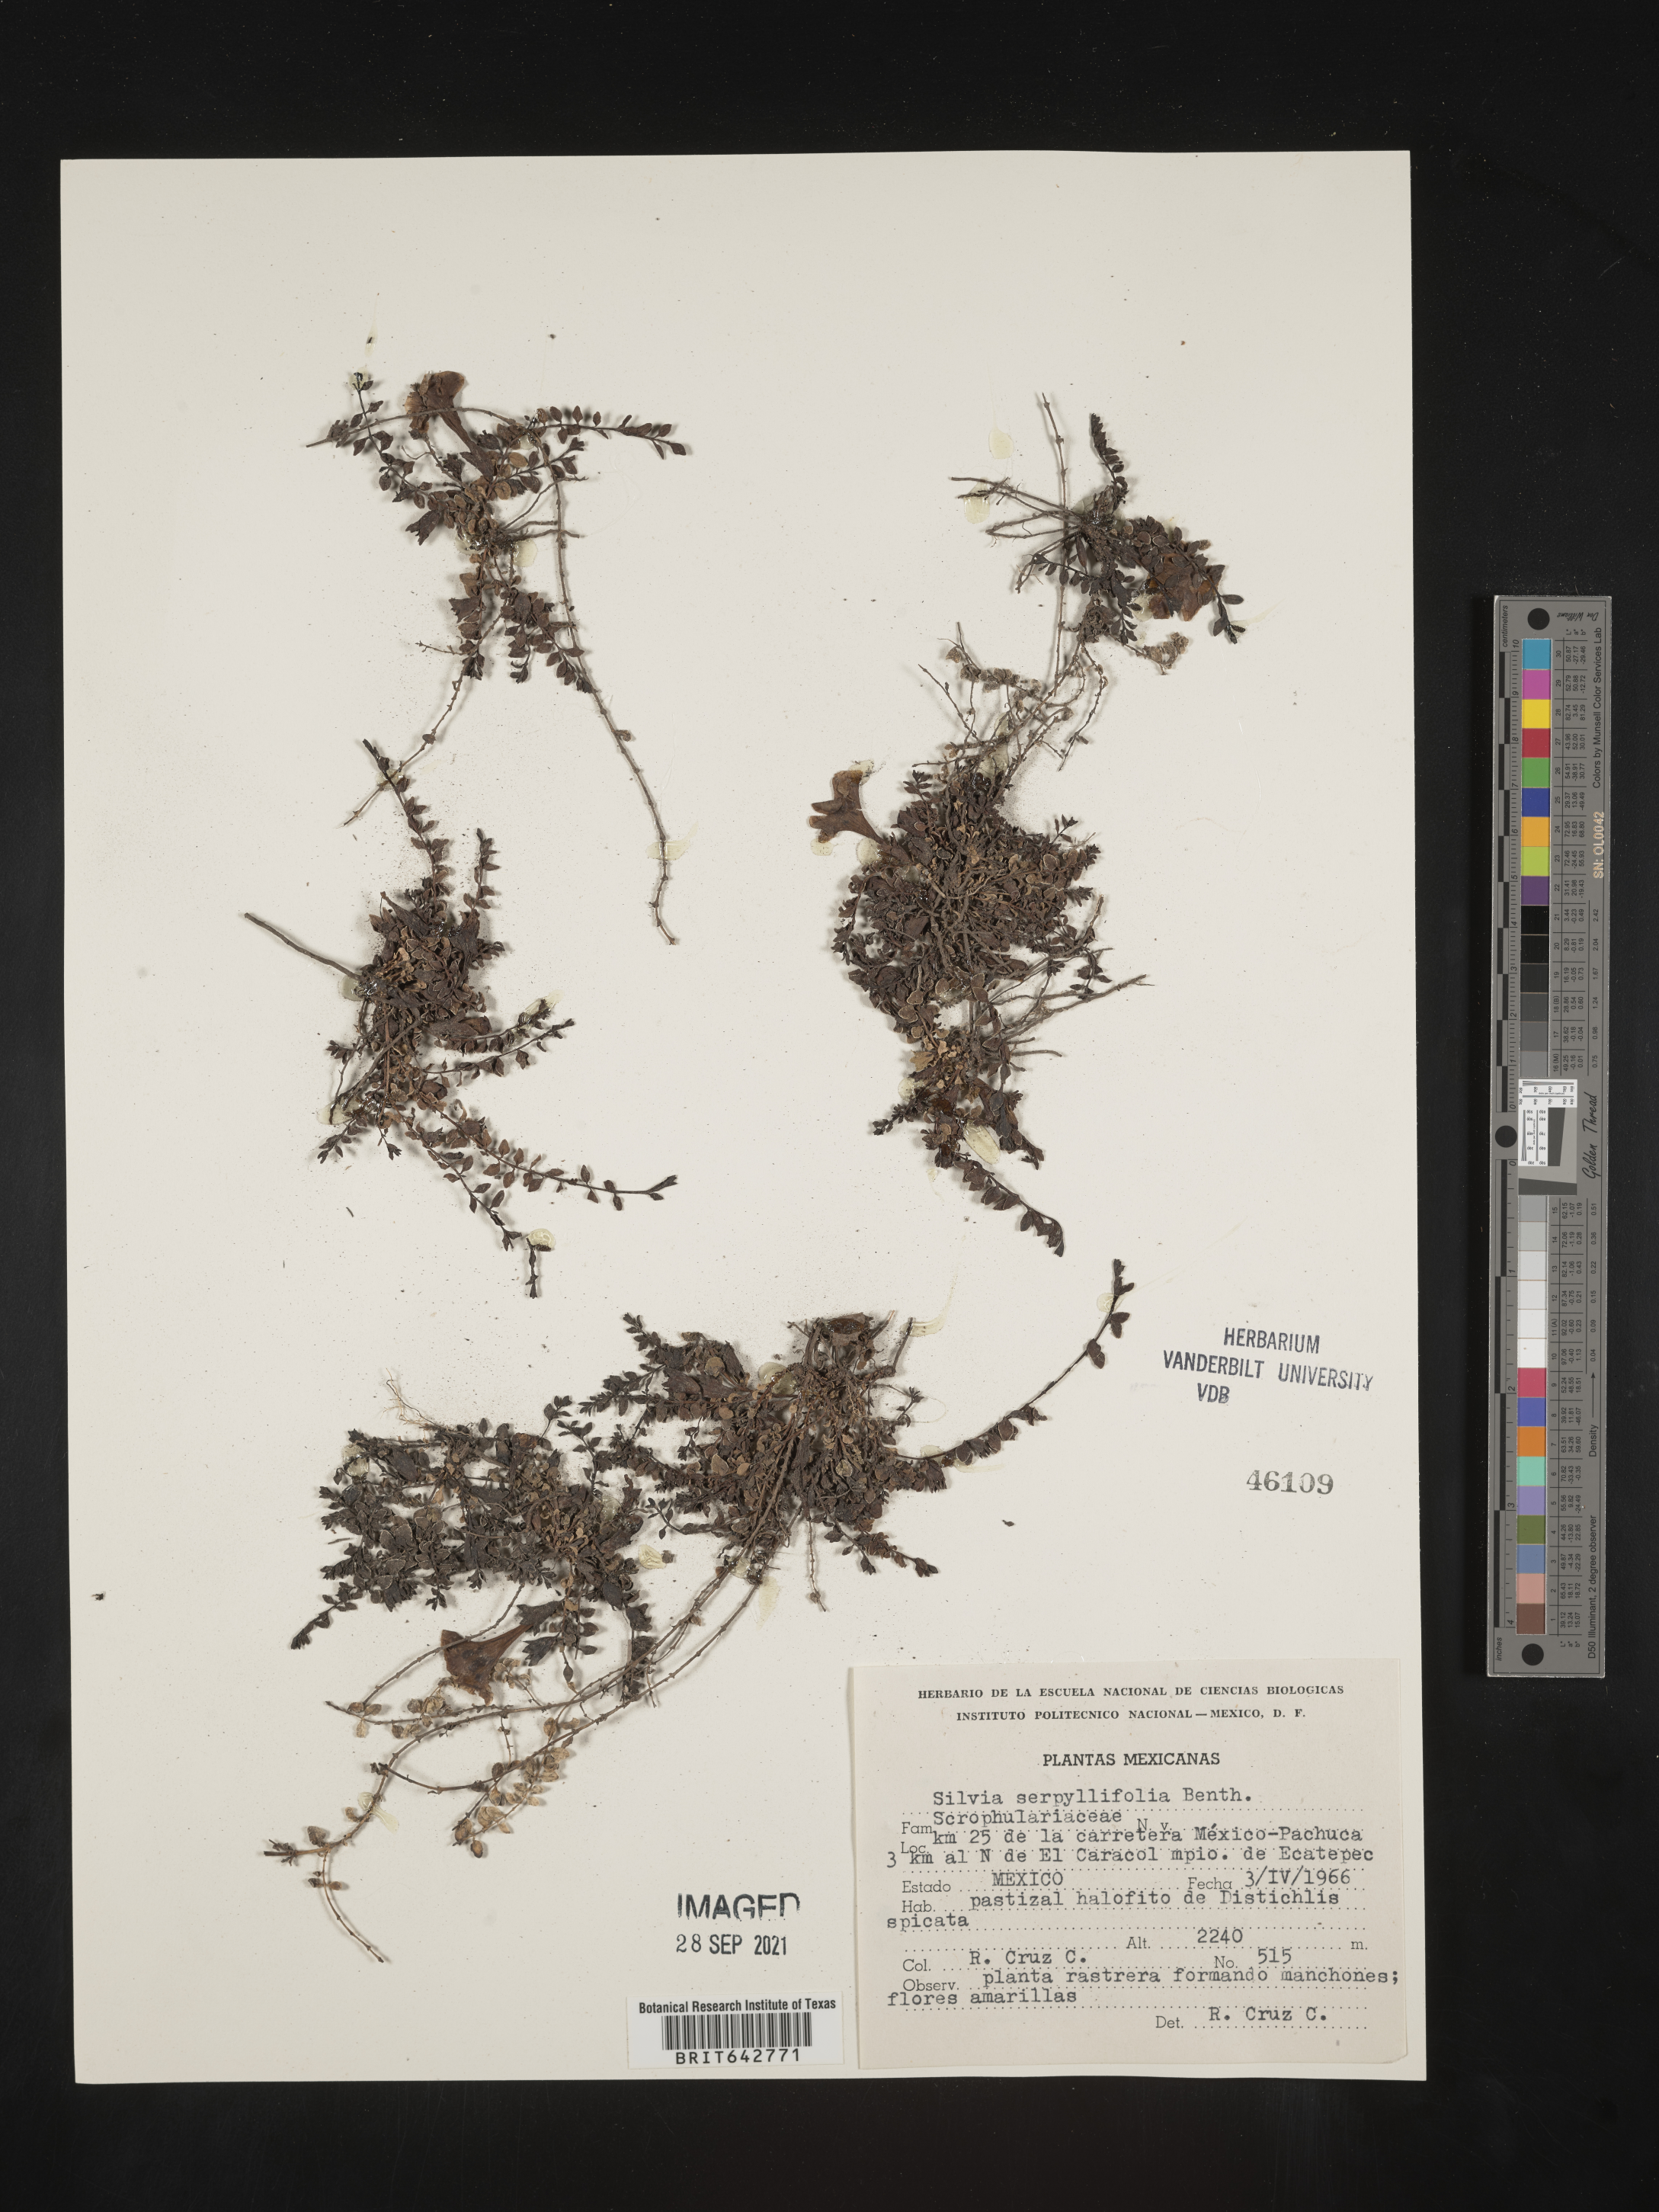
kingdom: Plantae
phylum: Tracheophyta
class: Magnoliopsida
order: Lamiales
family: Orobanchaceae
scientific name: Orobanchaceae
